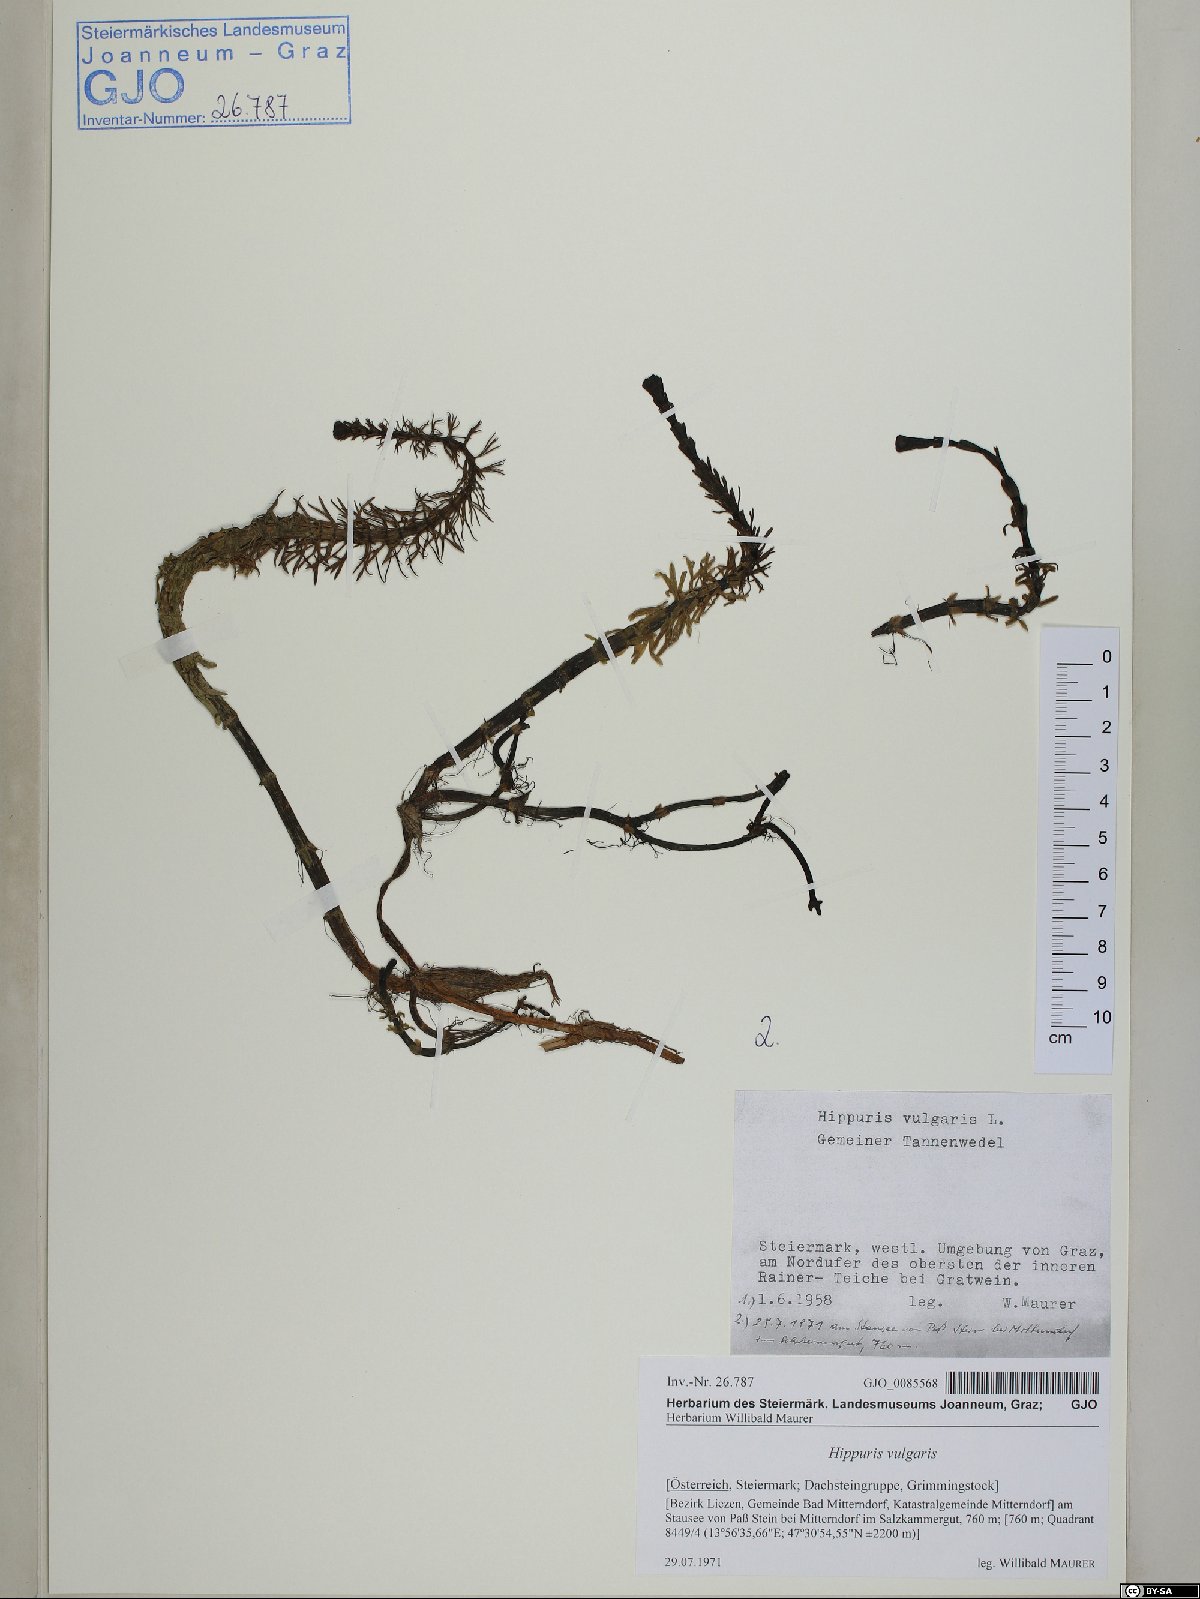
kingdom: Plantae
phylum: Tracheophyta
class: Magnoliopsida
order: Lamiales
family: Plantaginaceae
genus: Hippuris
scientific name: Hippuris vulgaris
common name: Mare's-tail
